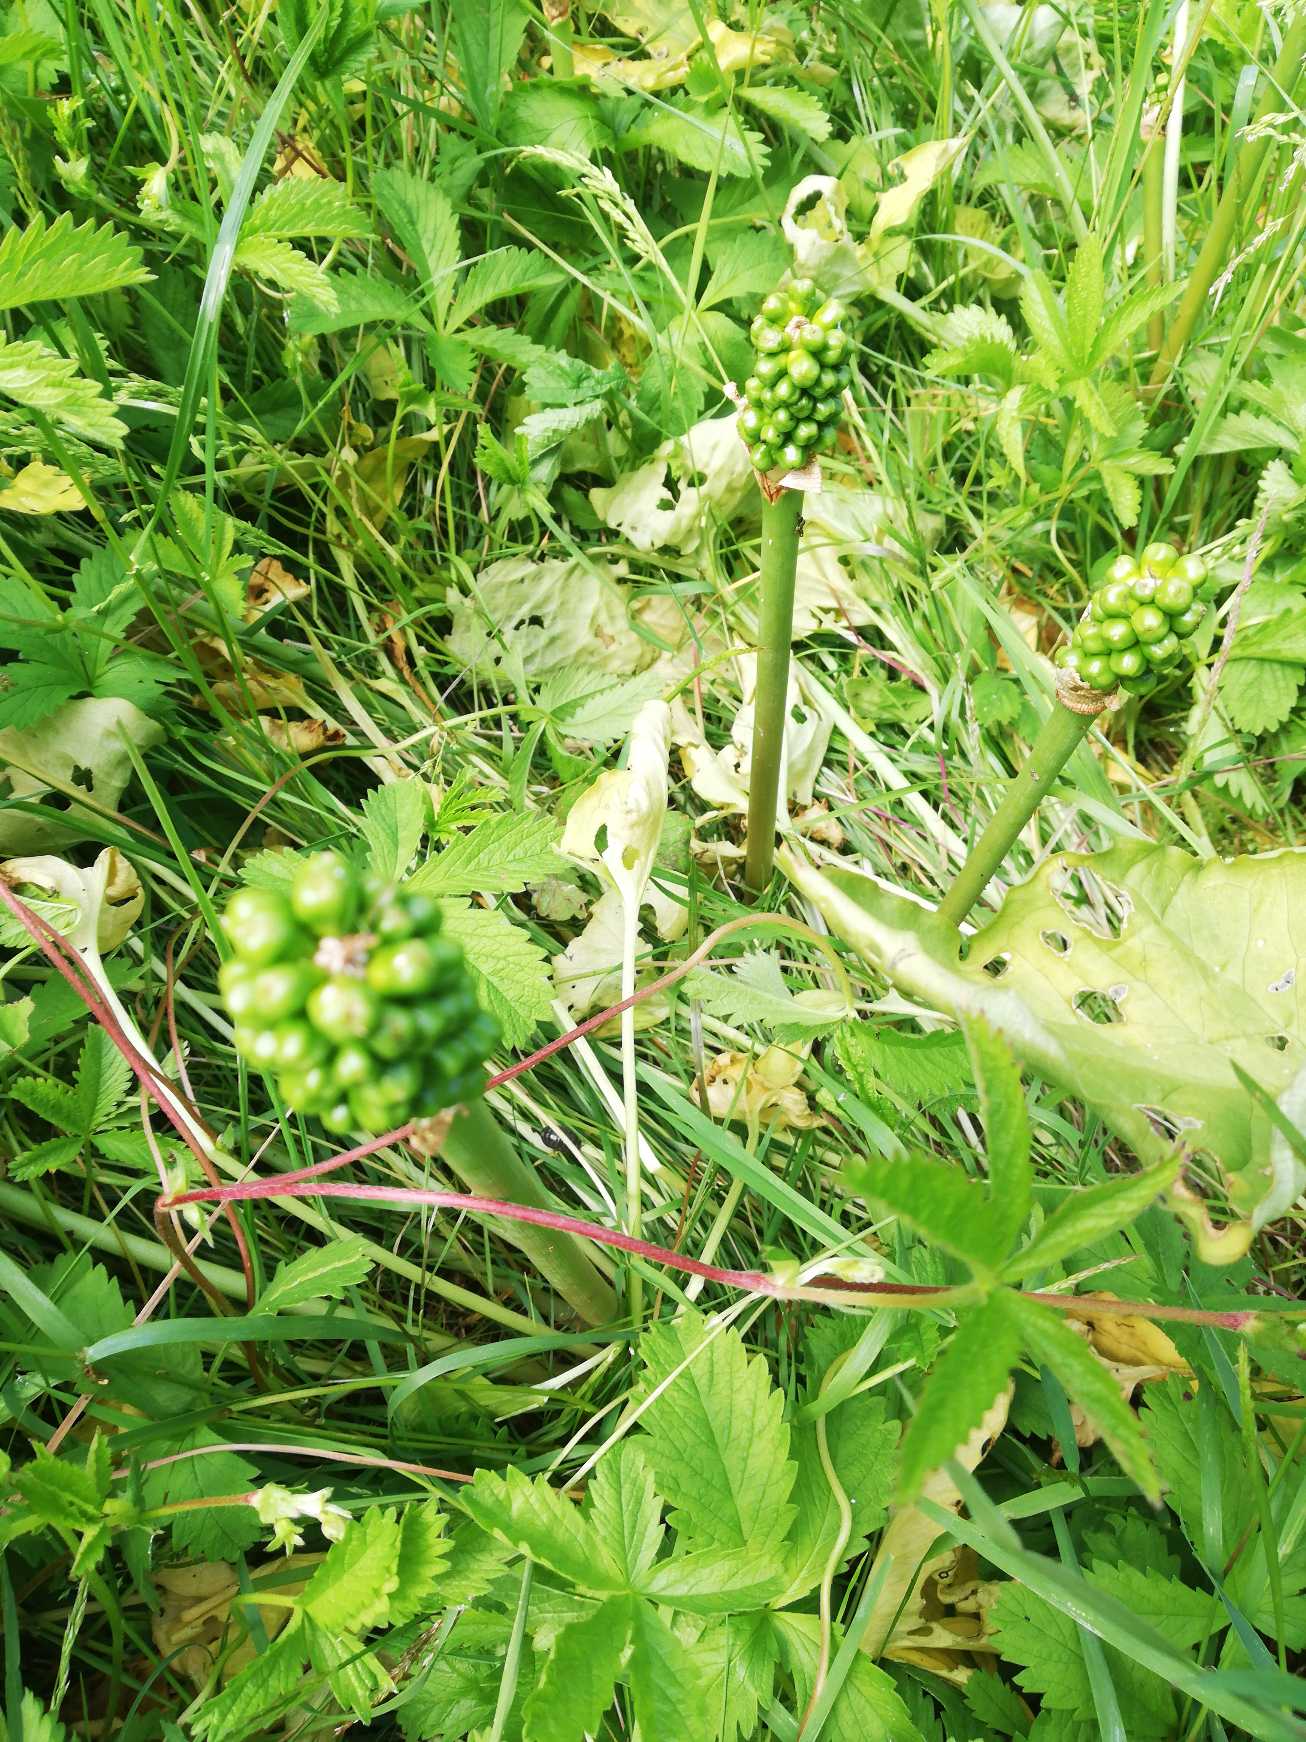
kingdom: Plantae
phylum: Tracheophyta
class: Liliopsida
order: Alismatales
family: Araceae
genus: Arum
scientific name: Arum
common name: Arumslægten
